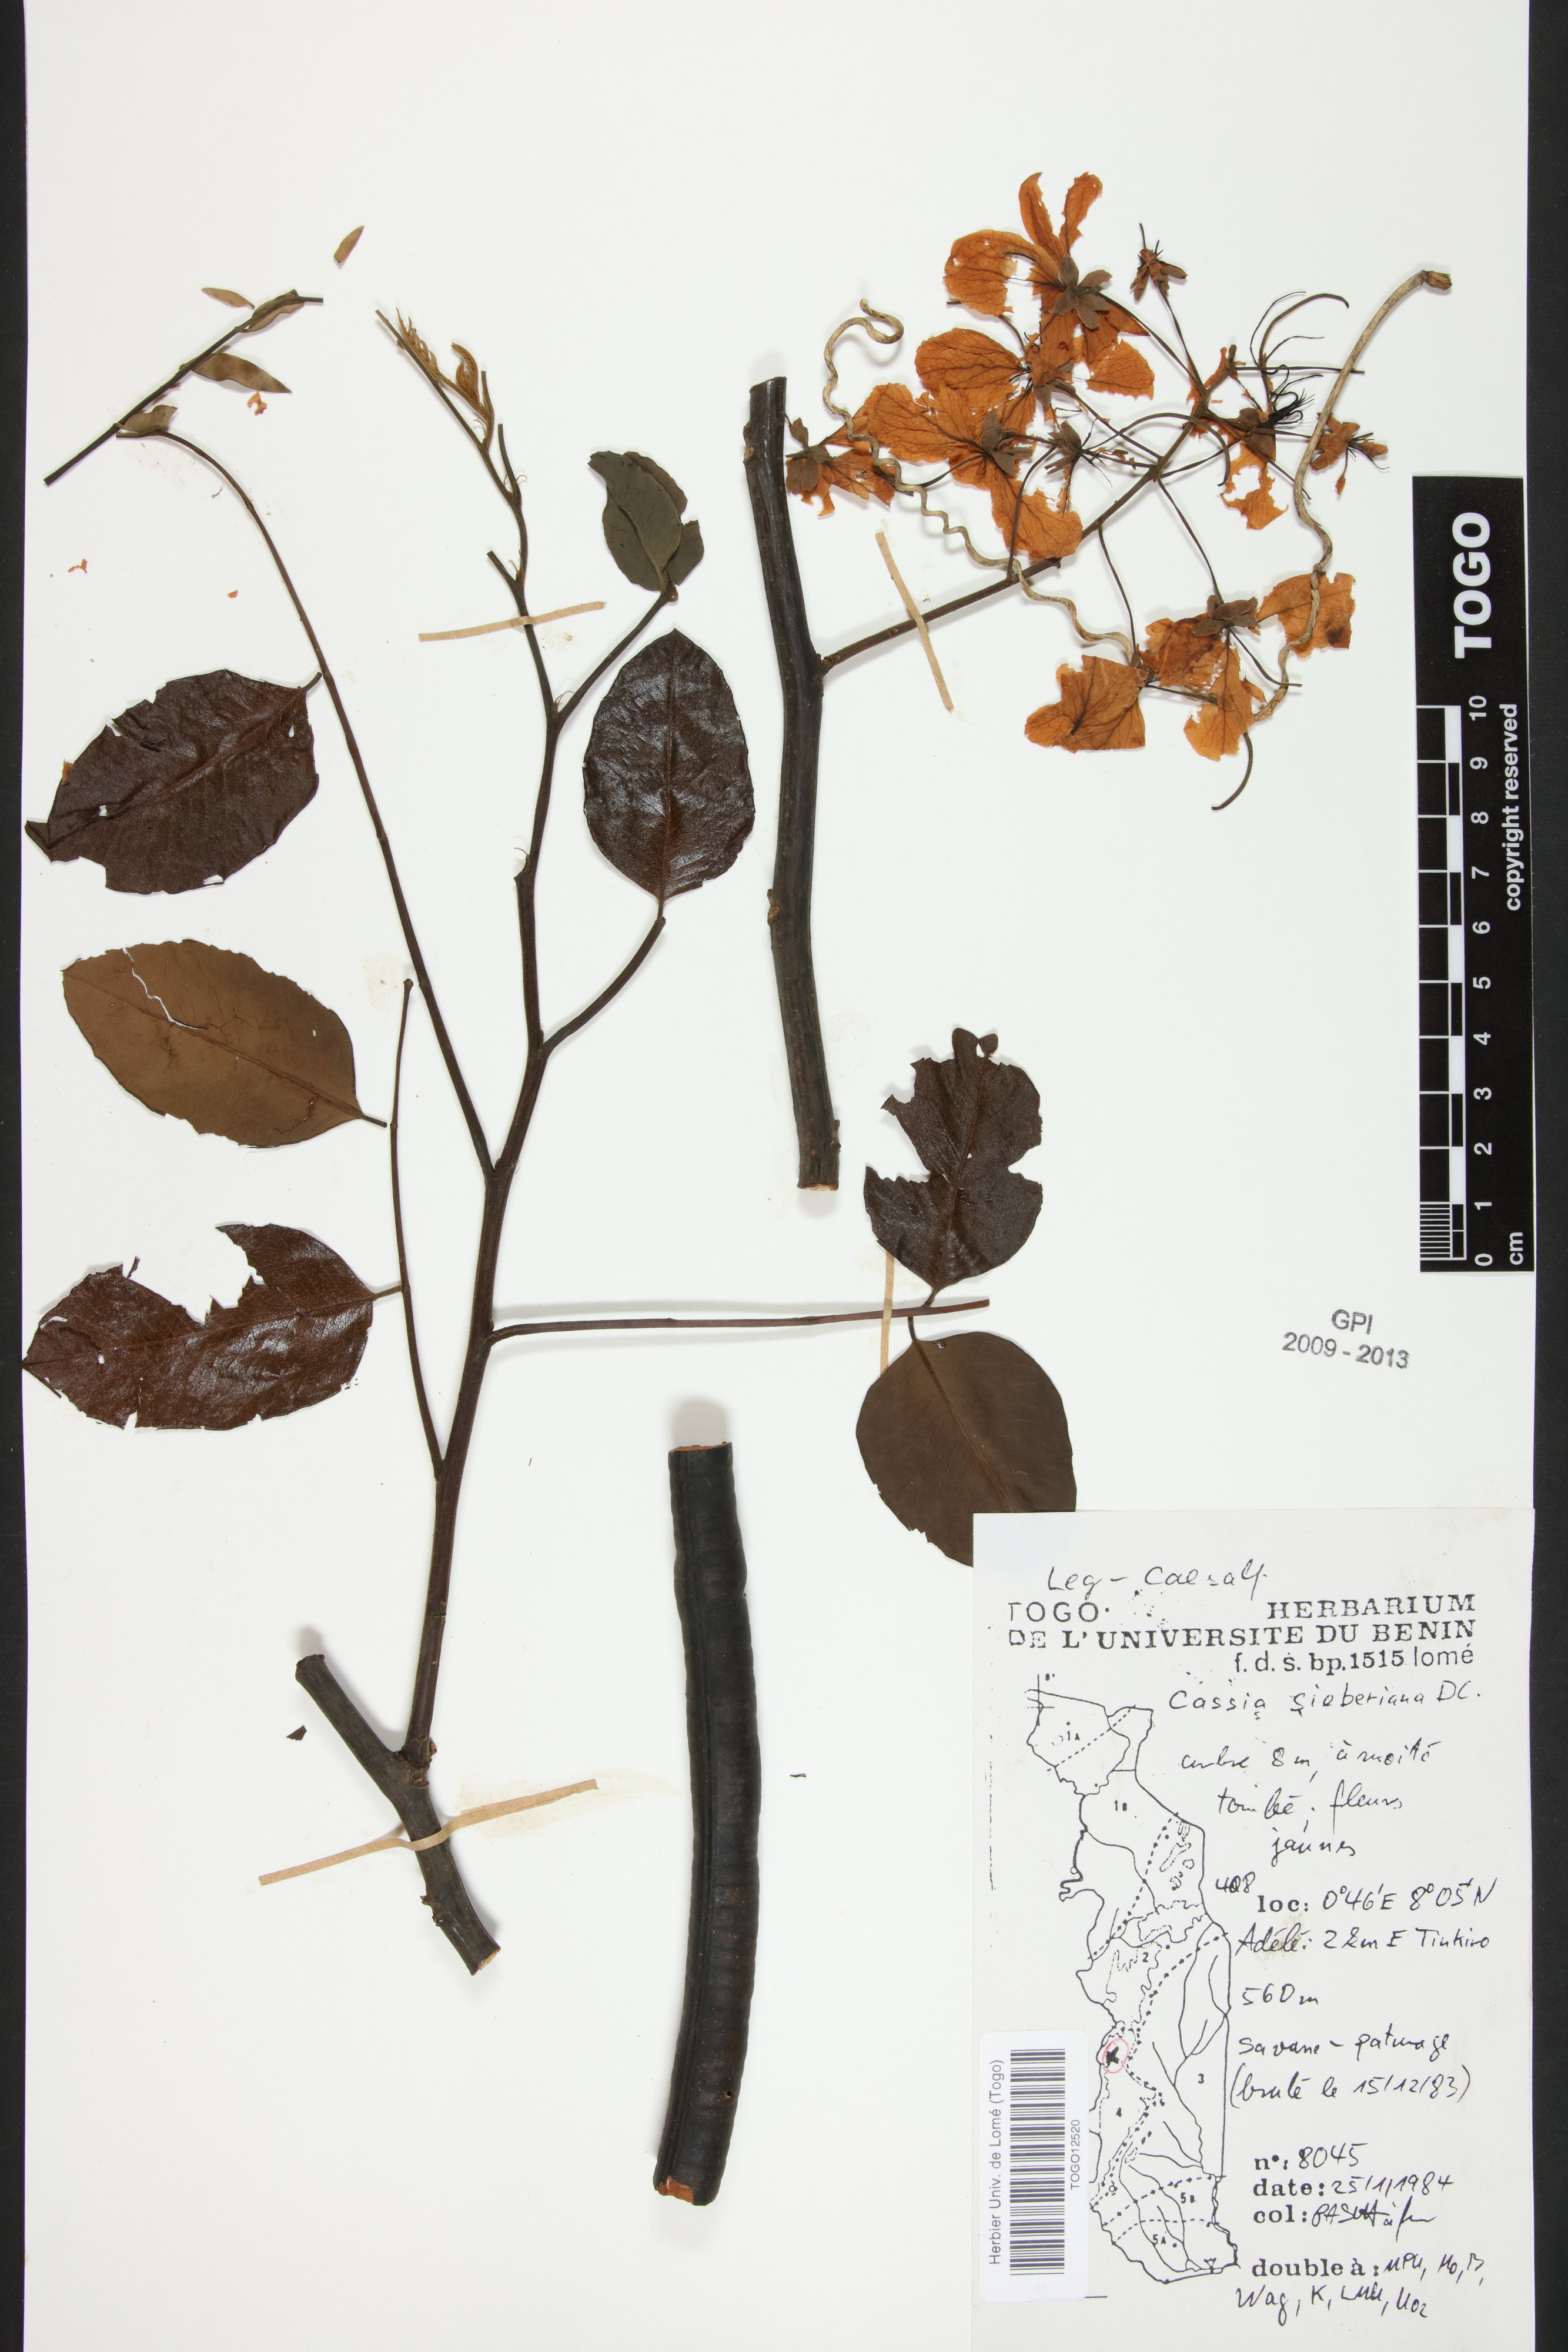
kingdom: Plantae
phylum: Tracheophyta
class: Magnoliopsida
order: Fabales
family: Fabaceae
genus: Cassia
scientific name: Cassia sieberiana
